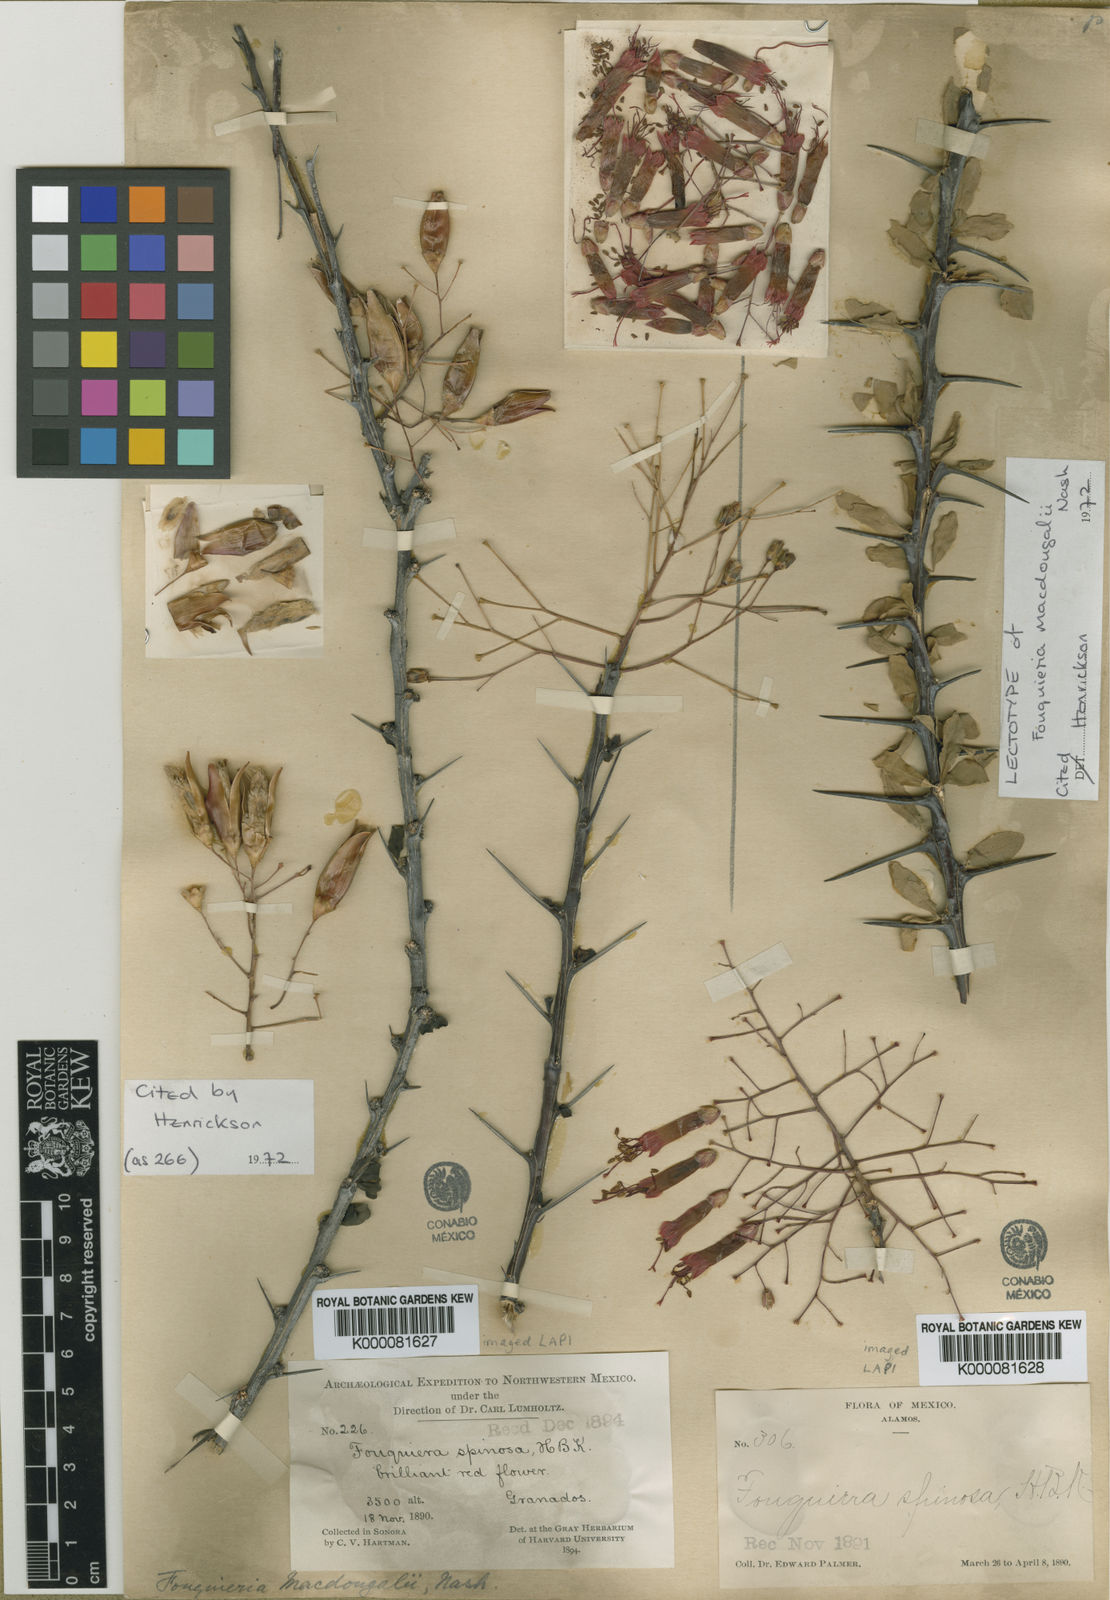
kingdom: Plantae
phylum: Tracheophyta
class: Magnoliopsida
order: Ericales
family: Fouquieriaceae
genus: Fouquieria
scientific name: Fouquieria macdougalii
